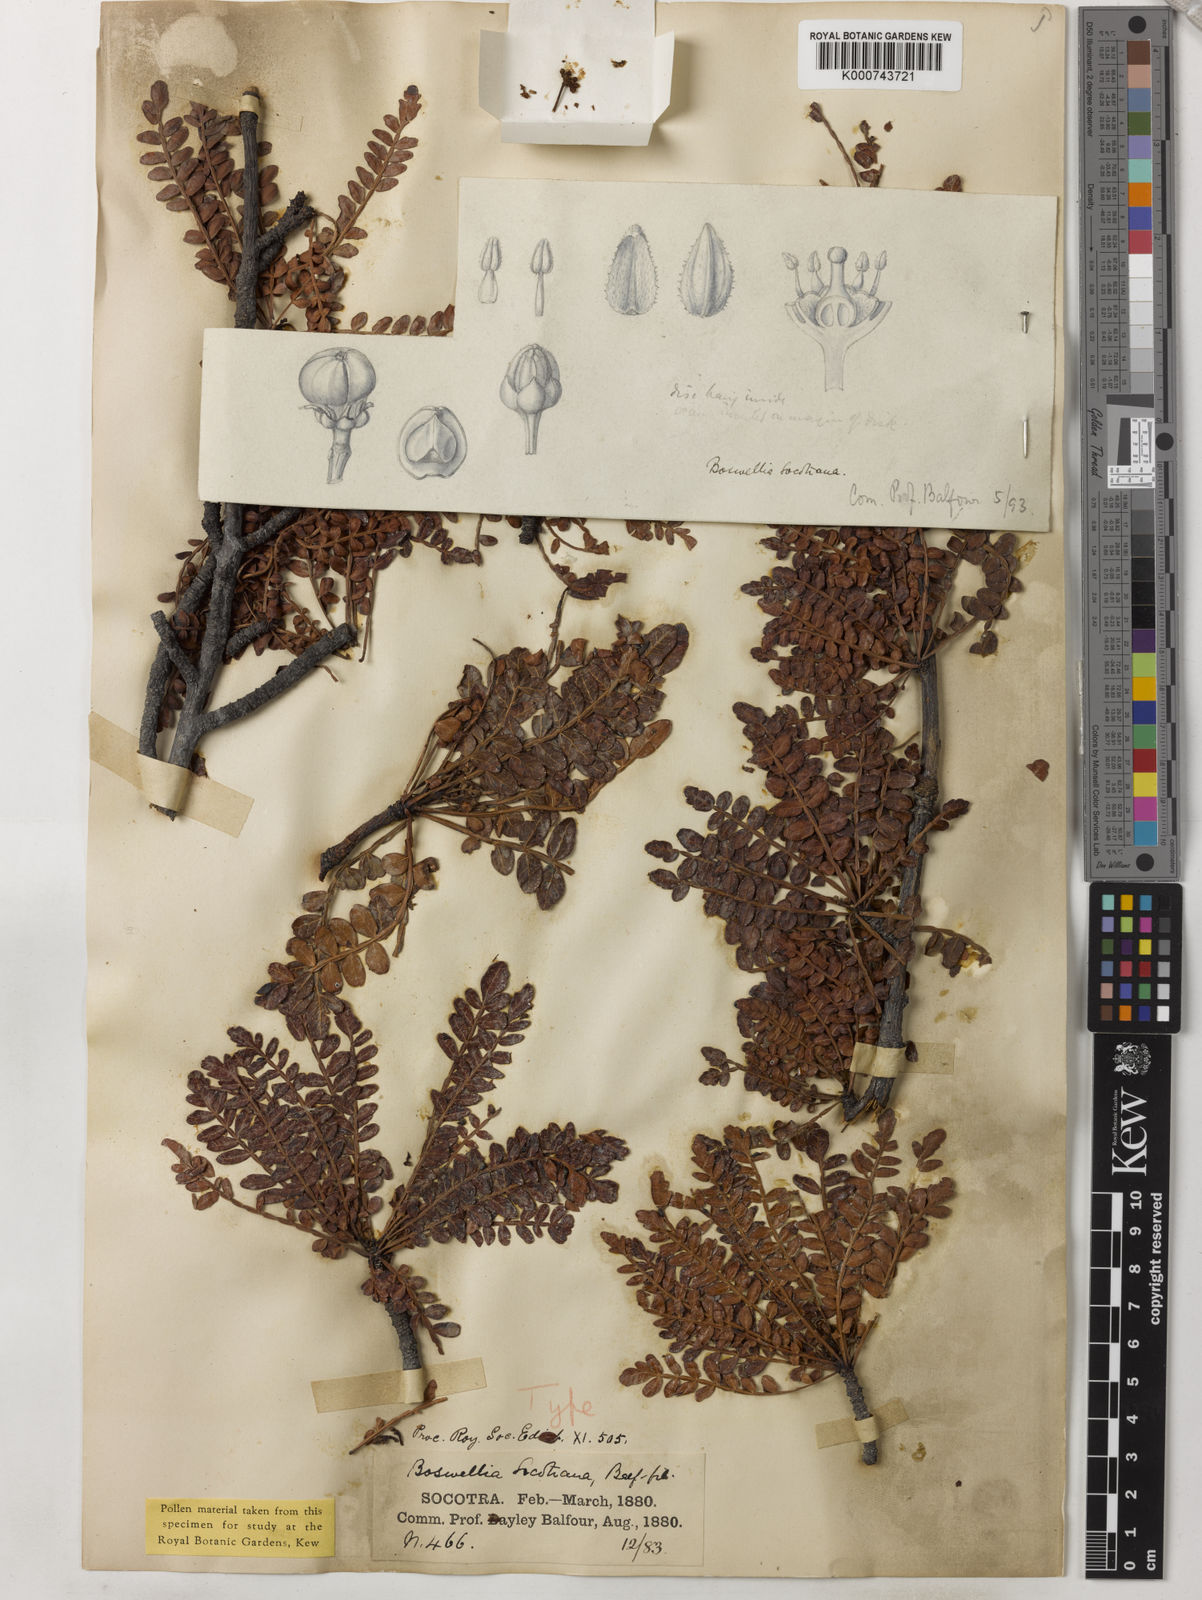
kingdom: Plantae
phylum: Tracheophyta
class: Magnoliopsida
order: Sapindales
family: Burseraceae
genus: Boswellia
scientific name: Boswellia socotrana
